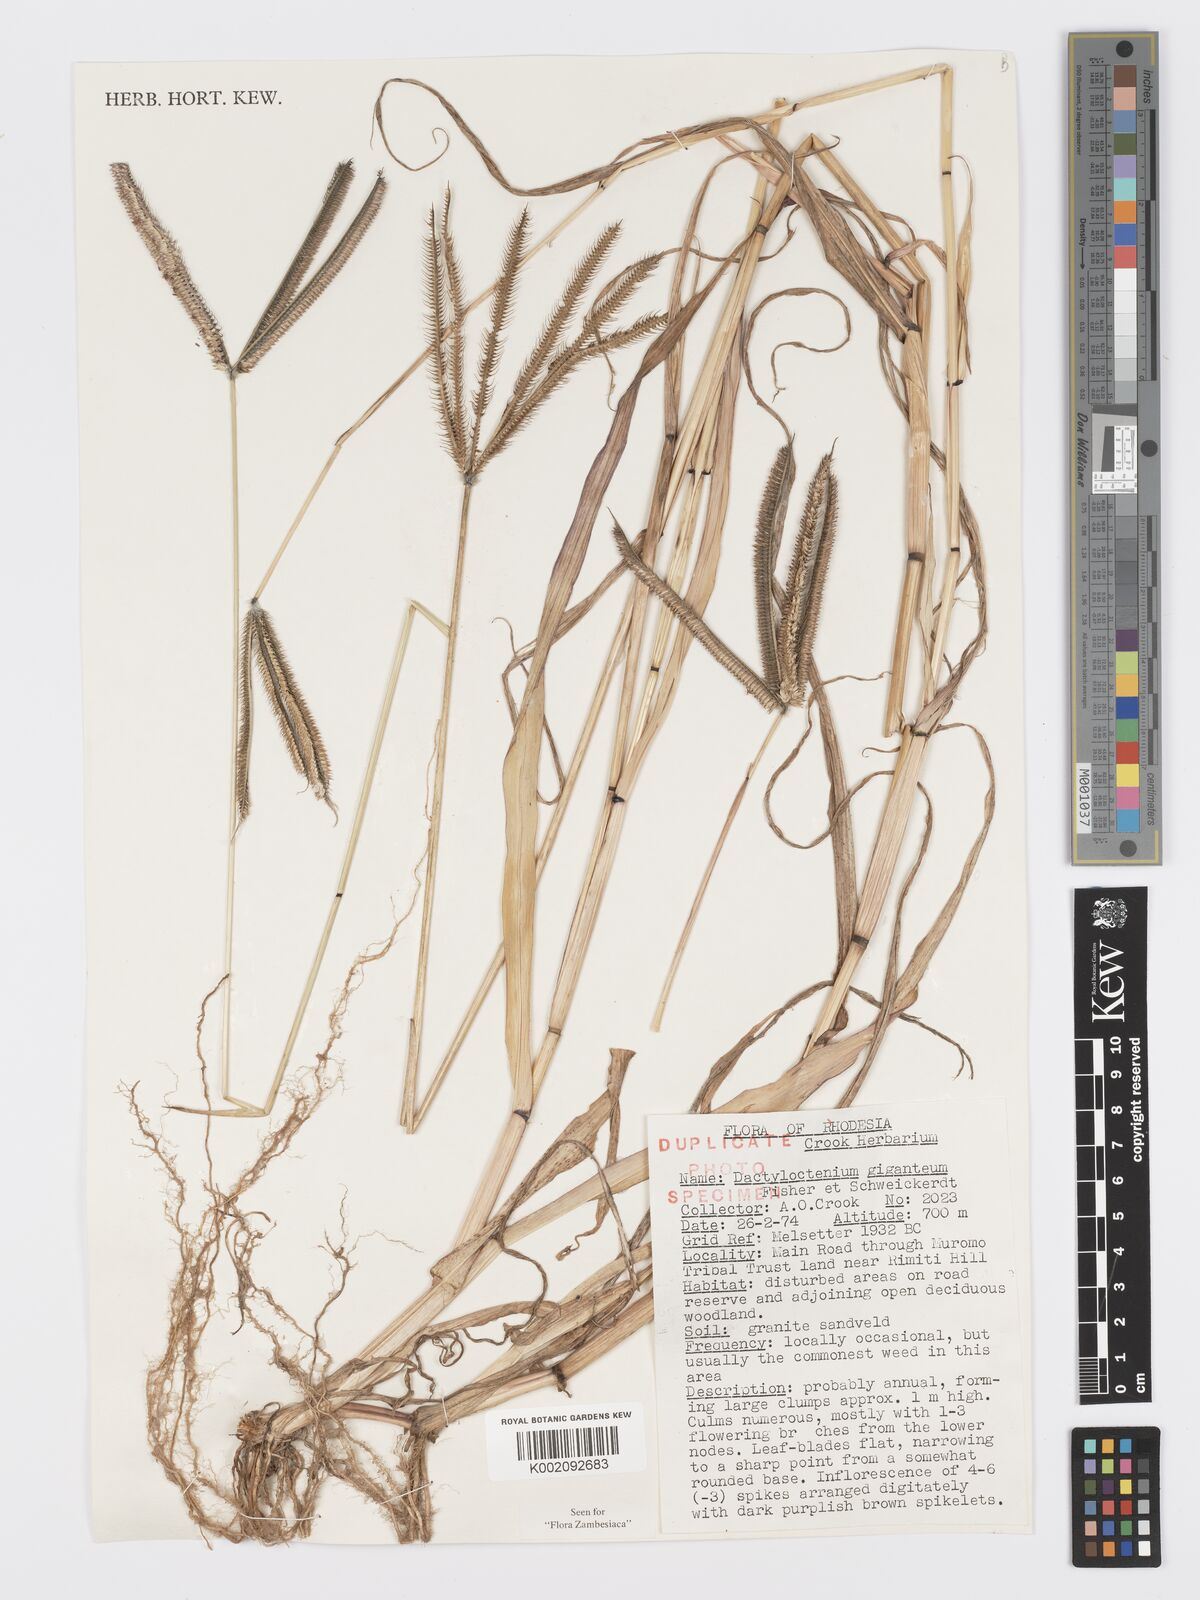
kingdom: Plantae
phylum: Tracheophyta
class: Liliopsida
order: Poales
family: Poaceae
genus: Dactyloctenium
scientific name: Dactyloctenium giganteum
